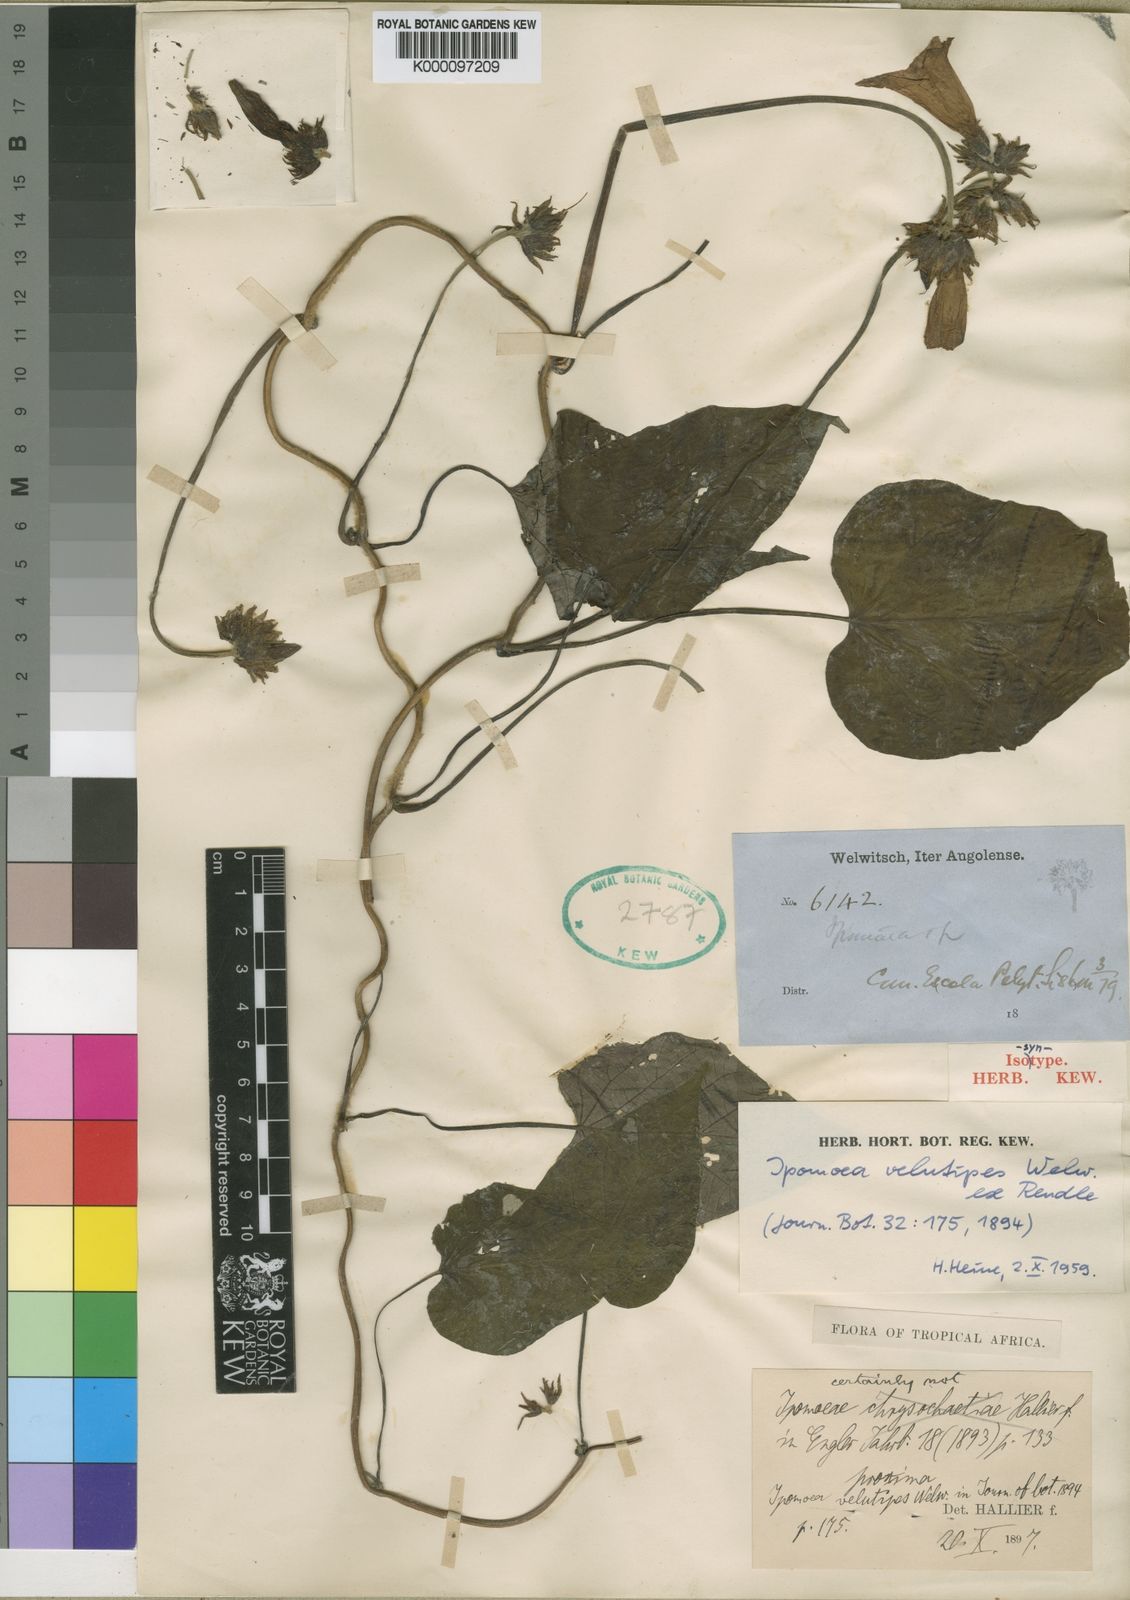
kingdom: Plantae
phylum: Tracheophyta
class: Magnoliopsida
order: Solanales
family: Convolvulaceae
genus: Ipomoea
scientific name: Ipomoea chrysochaetia
